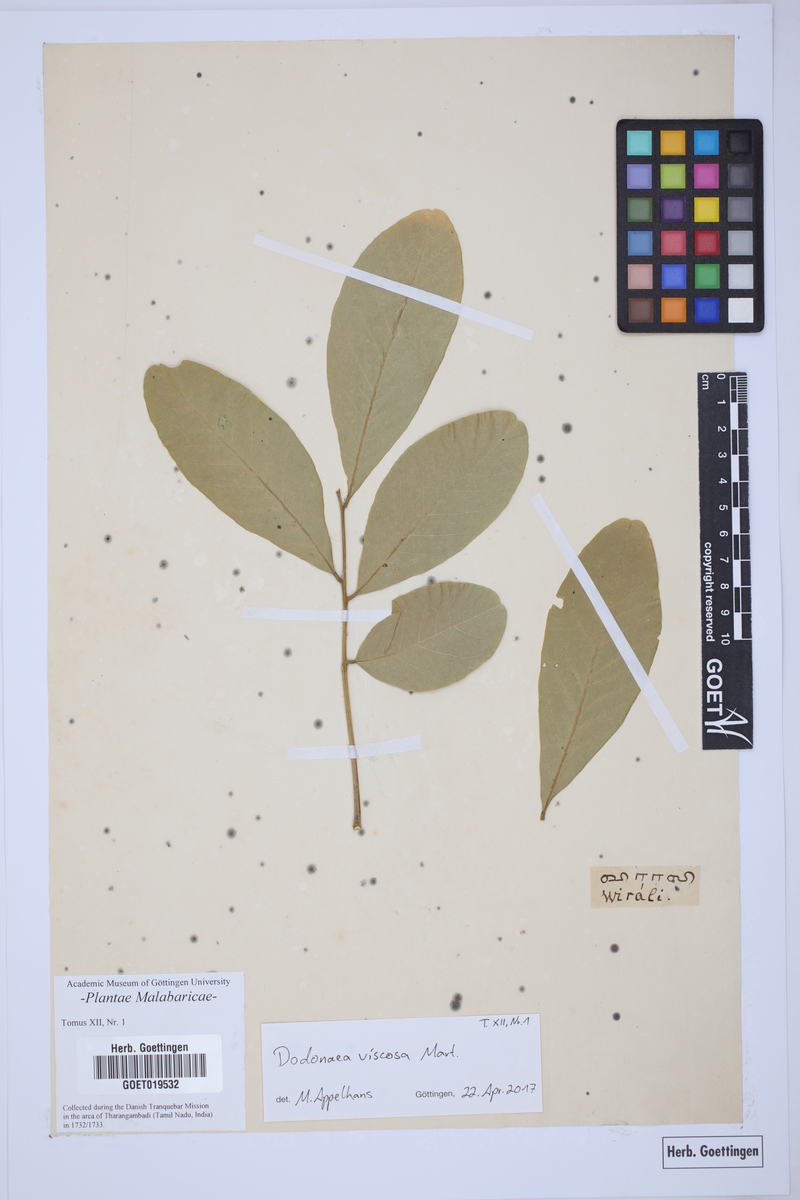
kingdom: Plantae
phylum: Tracheophyta
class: Magnoliopsida
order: Sapindales
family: Sapindaceae
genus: Dodonaea
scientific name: Dodonaea viscosa
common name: Hopbush
